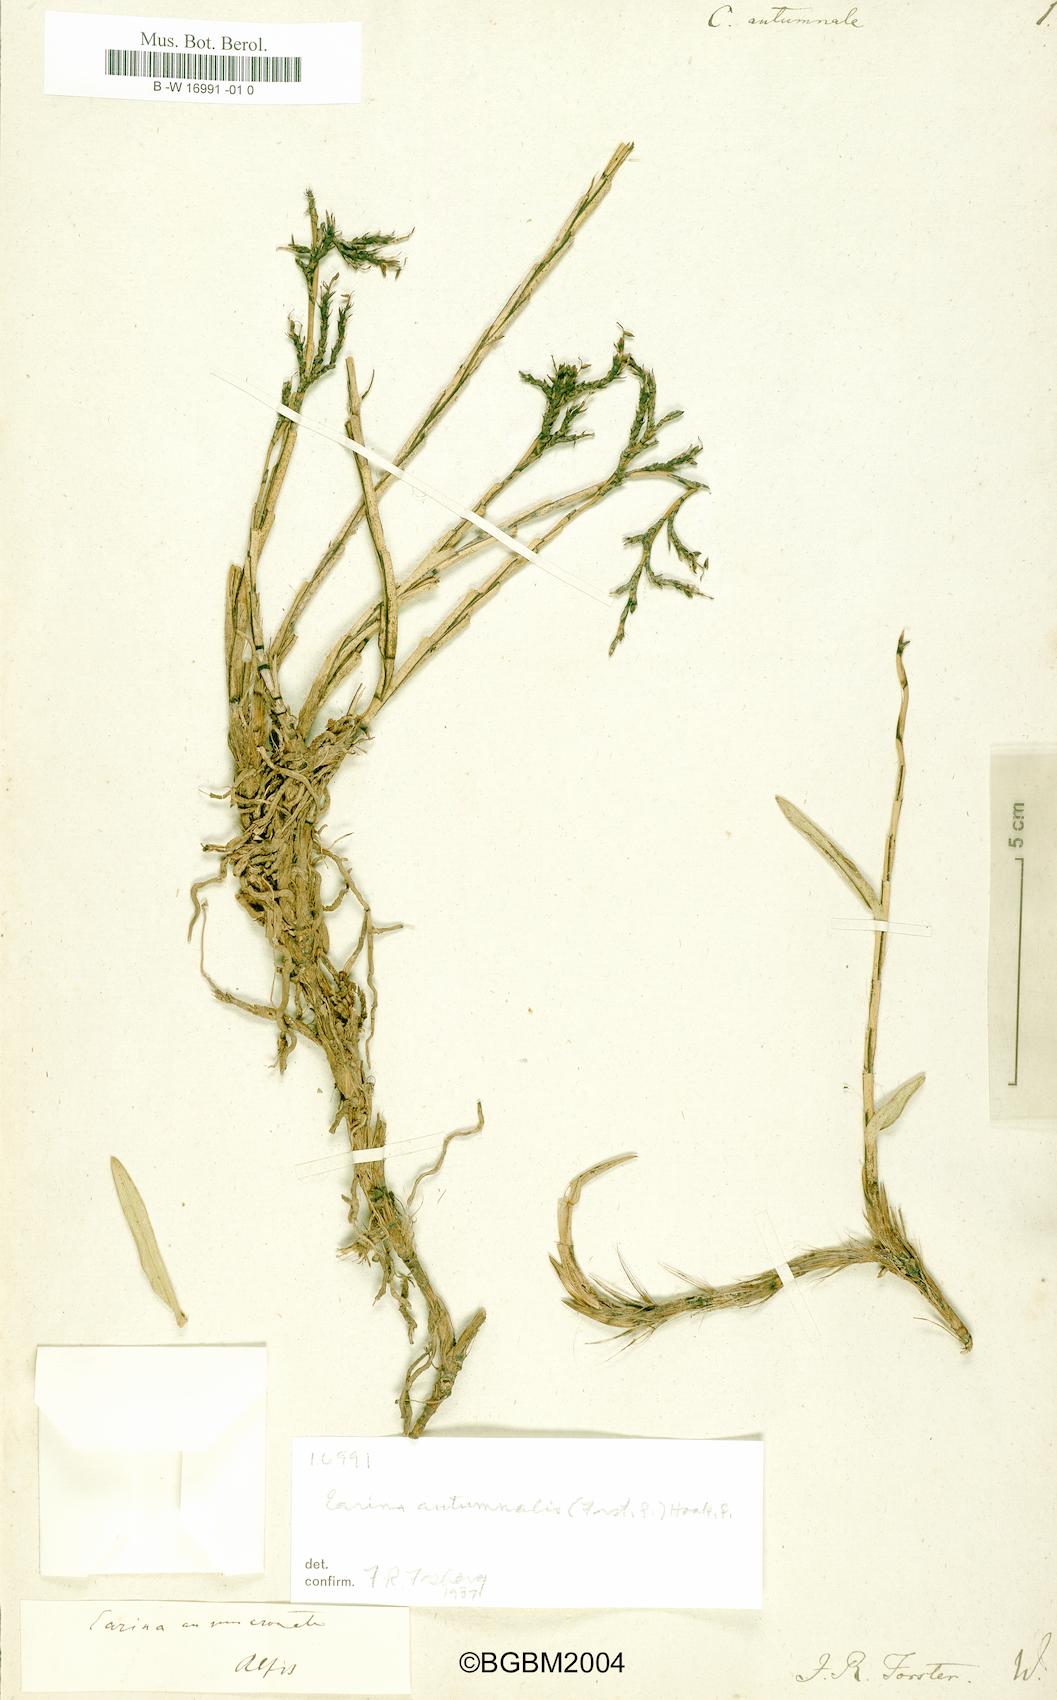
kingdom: Plantae
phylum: Tracheophyta
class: Liliopsida
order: Asparagales
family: Orchidaceae
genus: Earina
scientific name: Earina autumnalis
